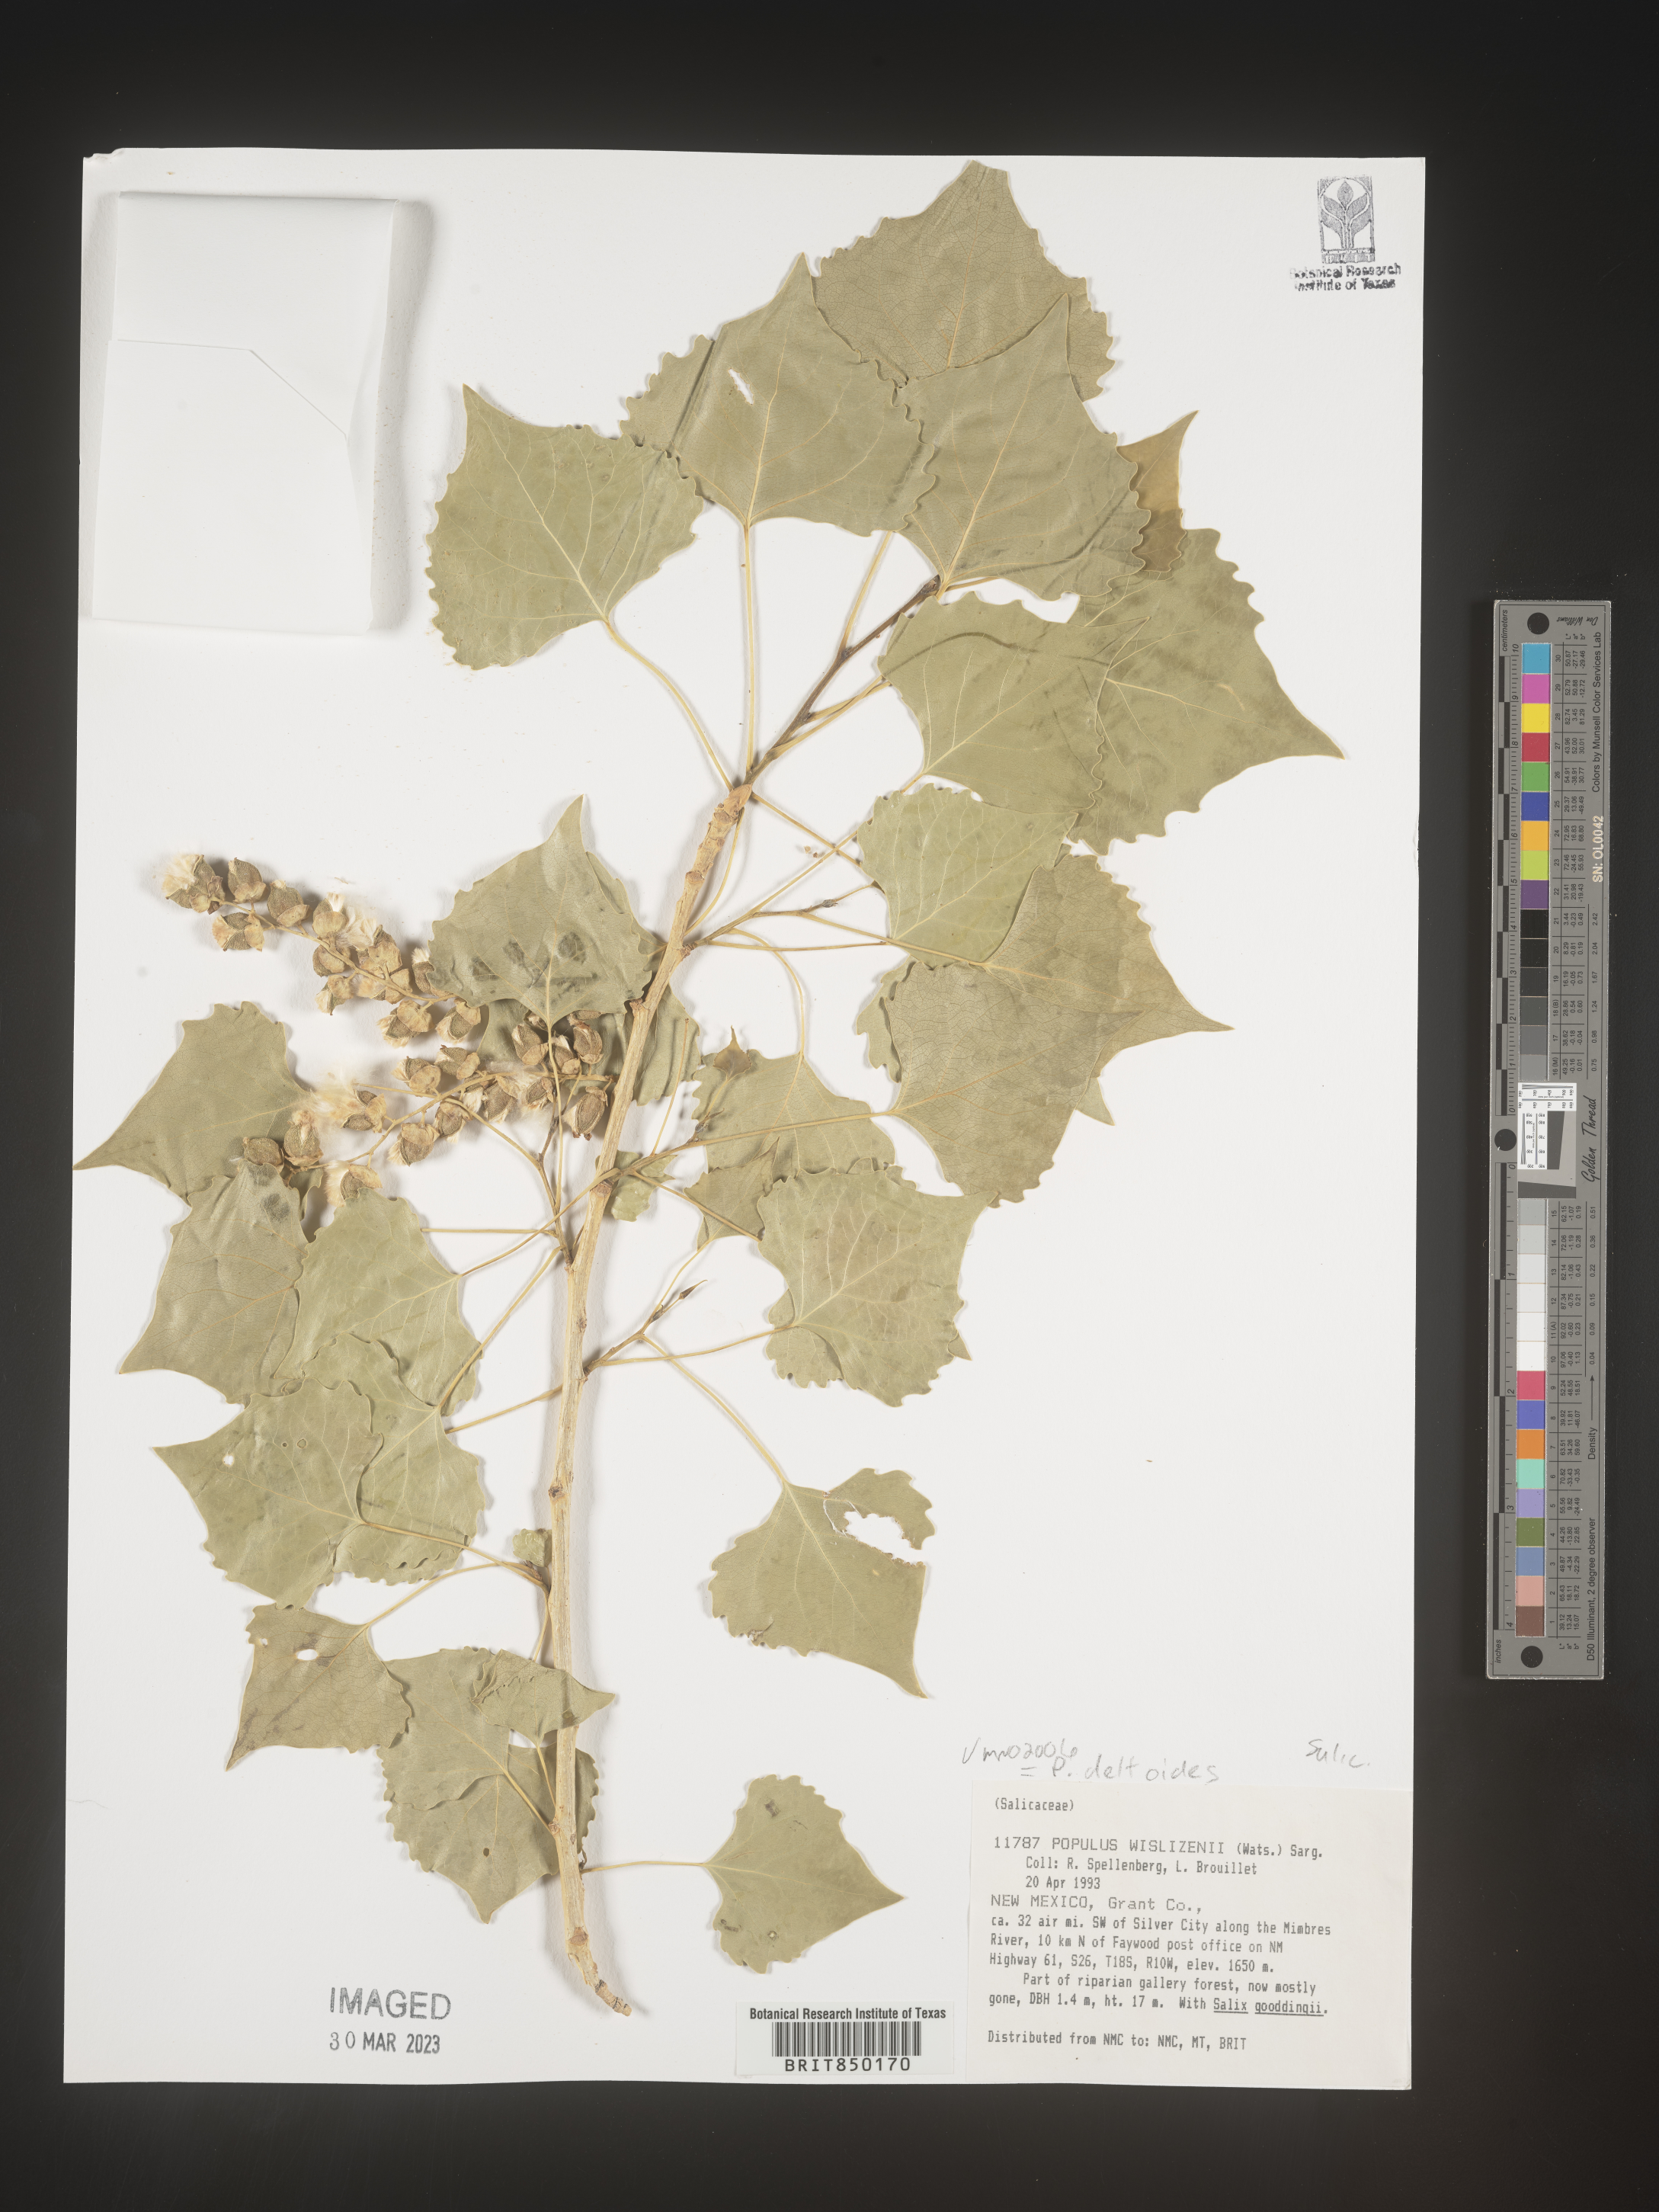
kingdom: Plantae
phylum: Tracheophyta
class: Magnoliopsida
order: Malpighiales
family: Salicaceae
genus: Populus
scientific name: Populus deltoides
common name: Eastern cottonwood
